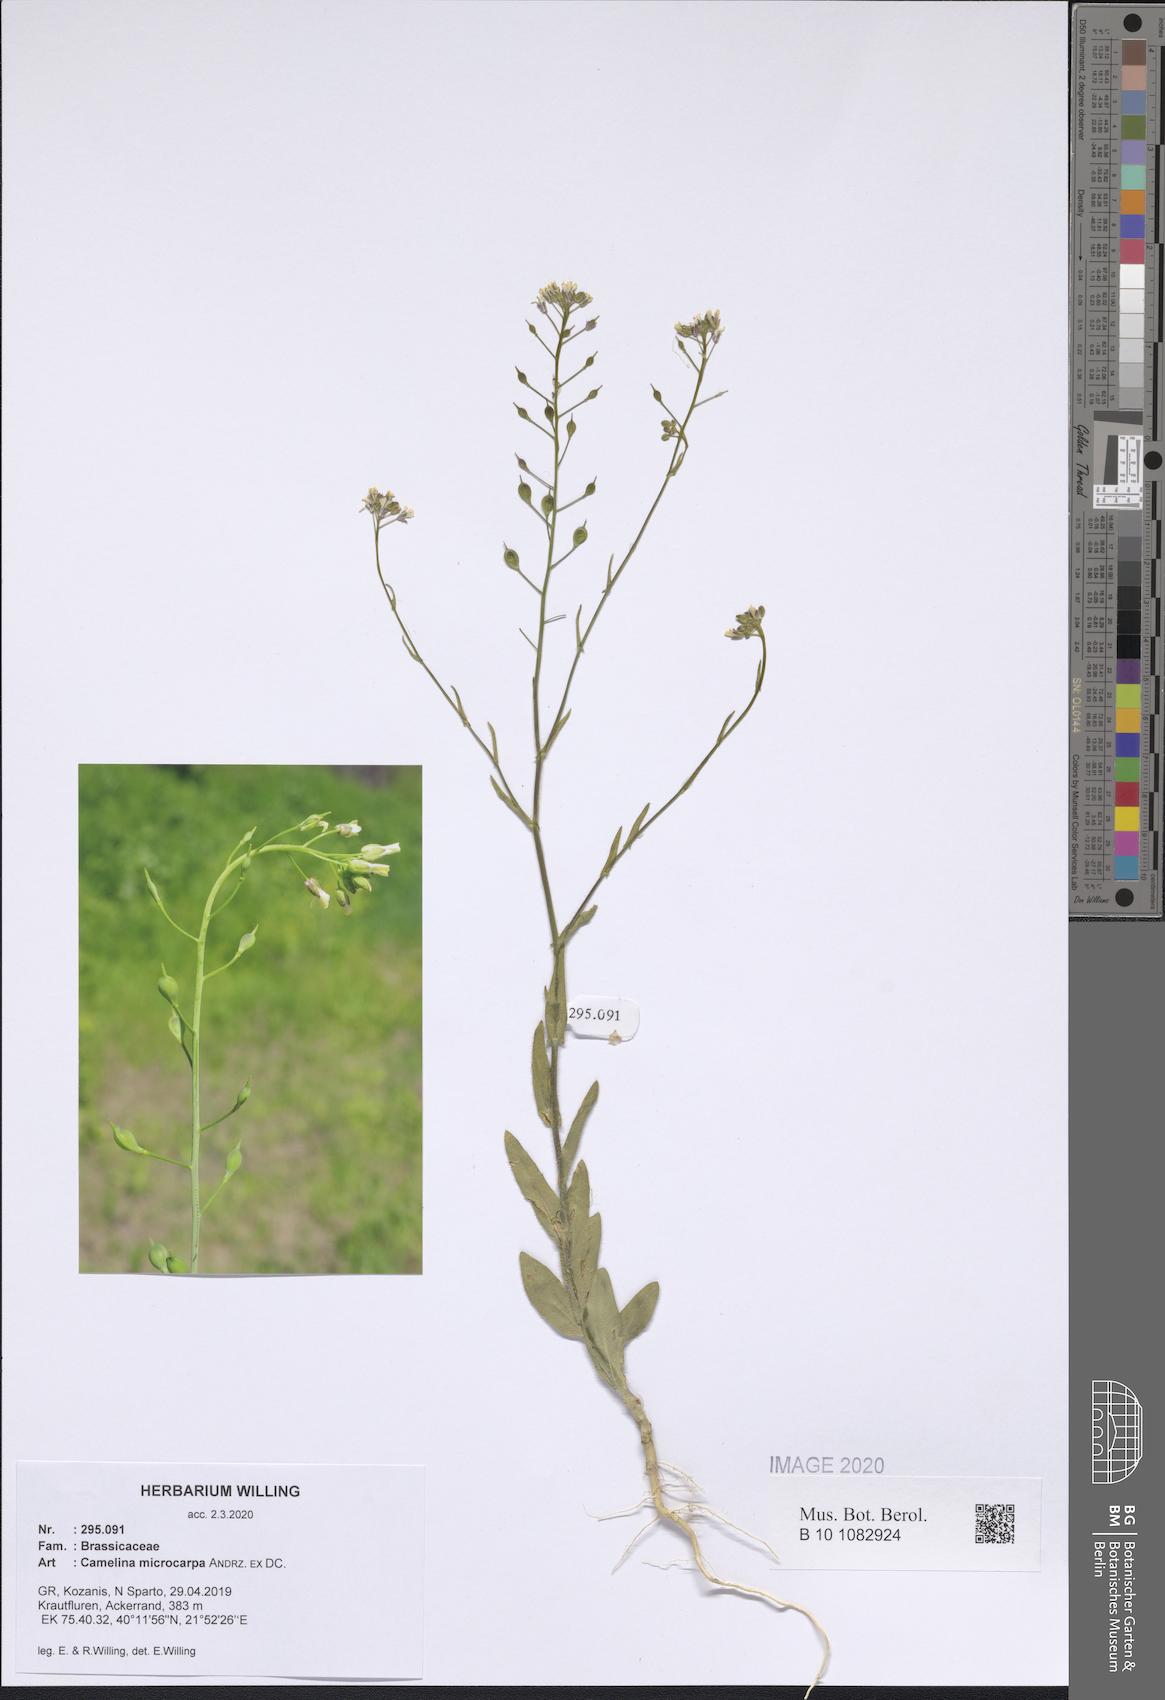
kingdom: Plantae
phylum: Tracheophyta
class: Magnoliopsida
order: Brassicales
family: Brassicaceae
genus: Camelina
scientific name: Camelina microcarpa
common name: Lesser gold-of-pleasure
